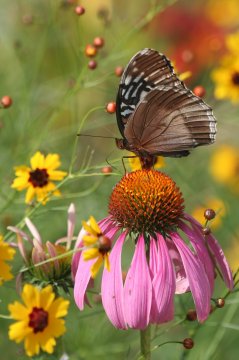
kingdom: Animalia
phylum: Arthropoda
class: Insecta
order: Lepidoptera
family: Nymphalidae
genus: Speyeria
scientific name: Speyeria diana
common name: Diana Fritillary
